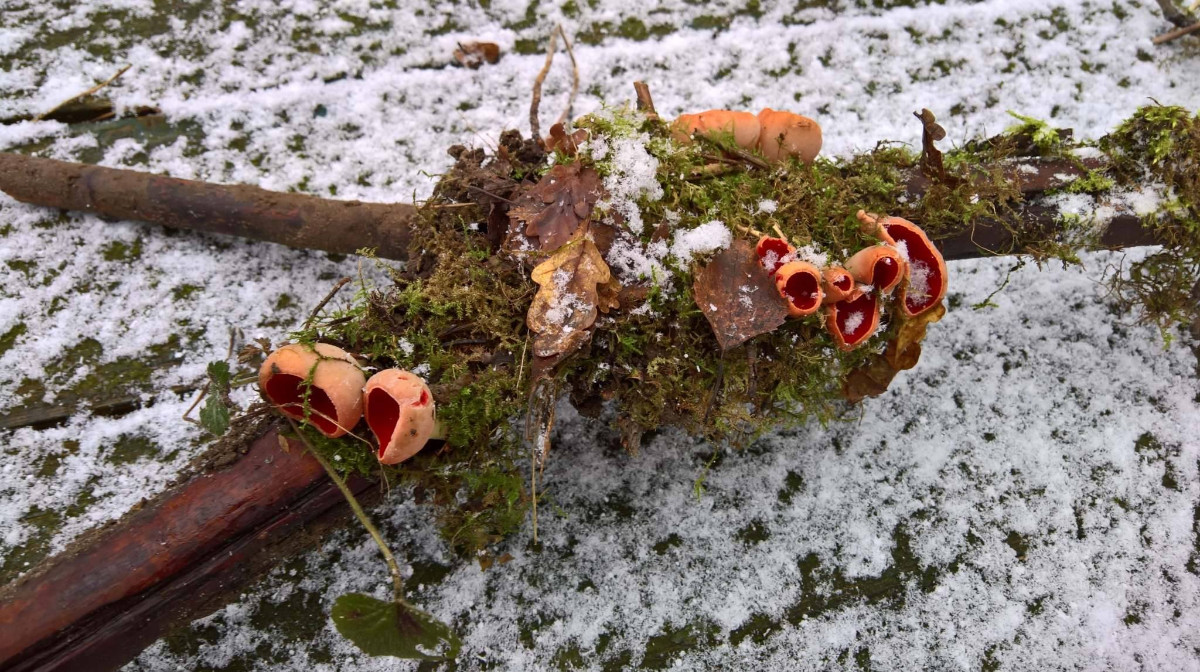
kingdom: Fungi
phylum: Ascomycota
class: Pezizomycetes
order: Pezizales
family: Sarcoscyphaceae
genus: Sarcoscypha
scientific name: Sarcoscypha
